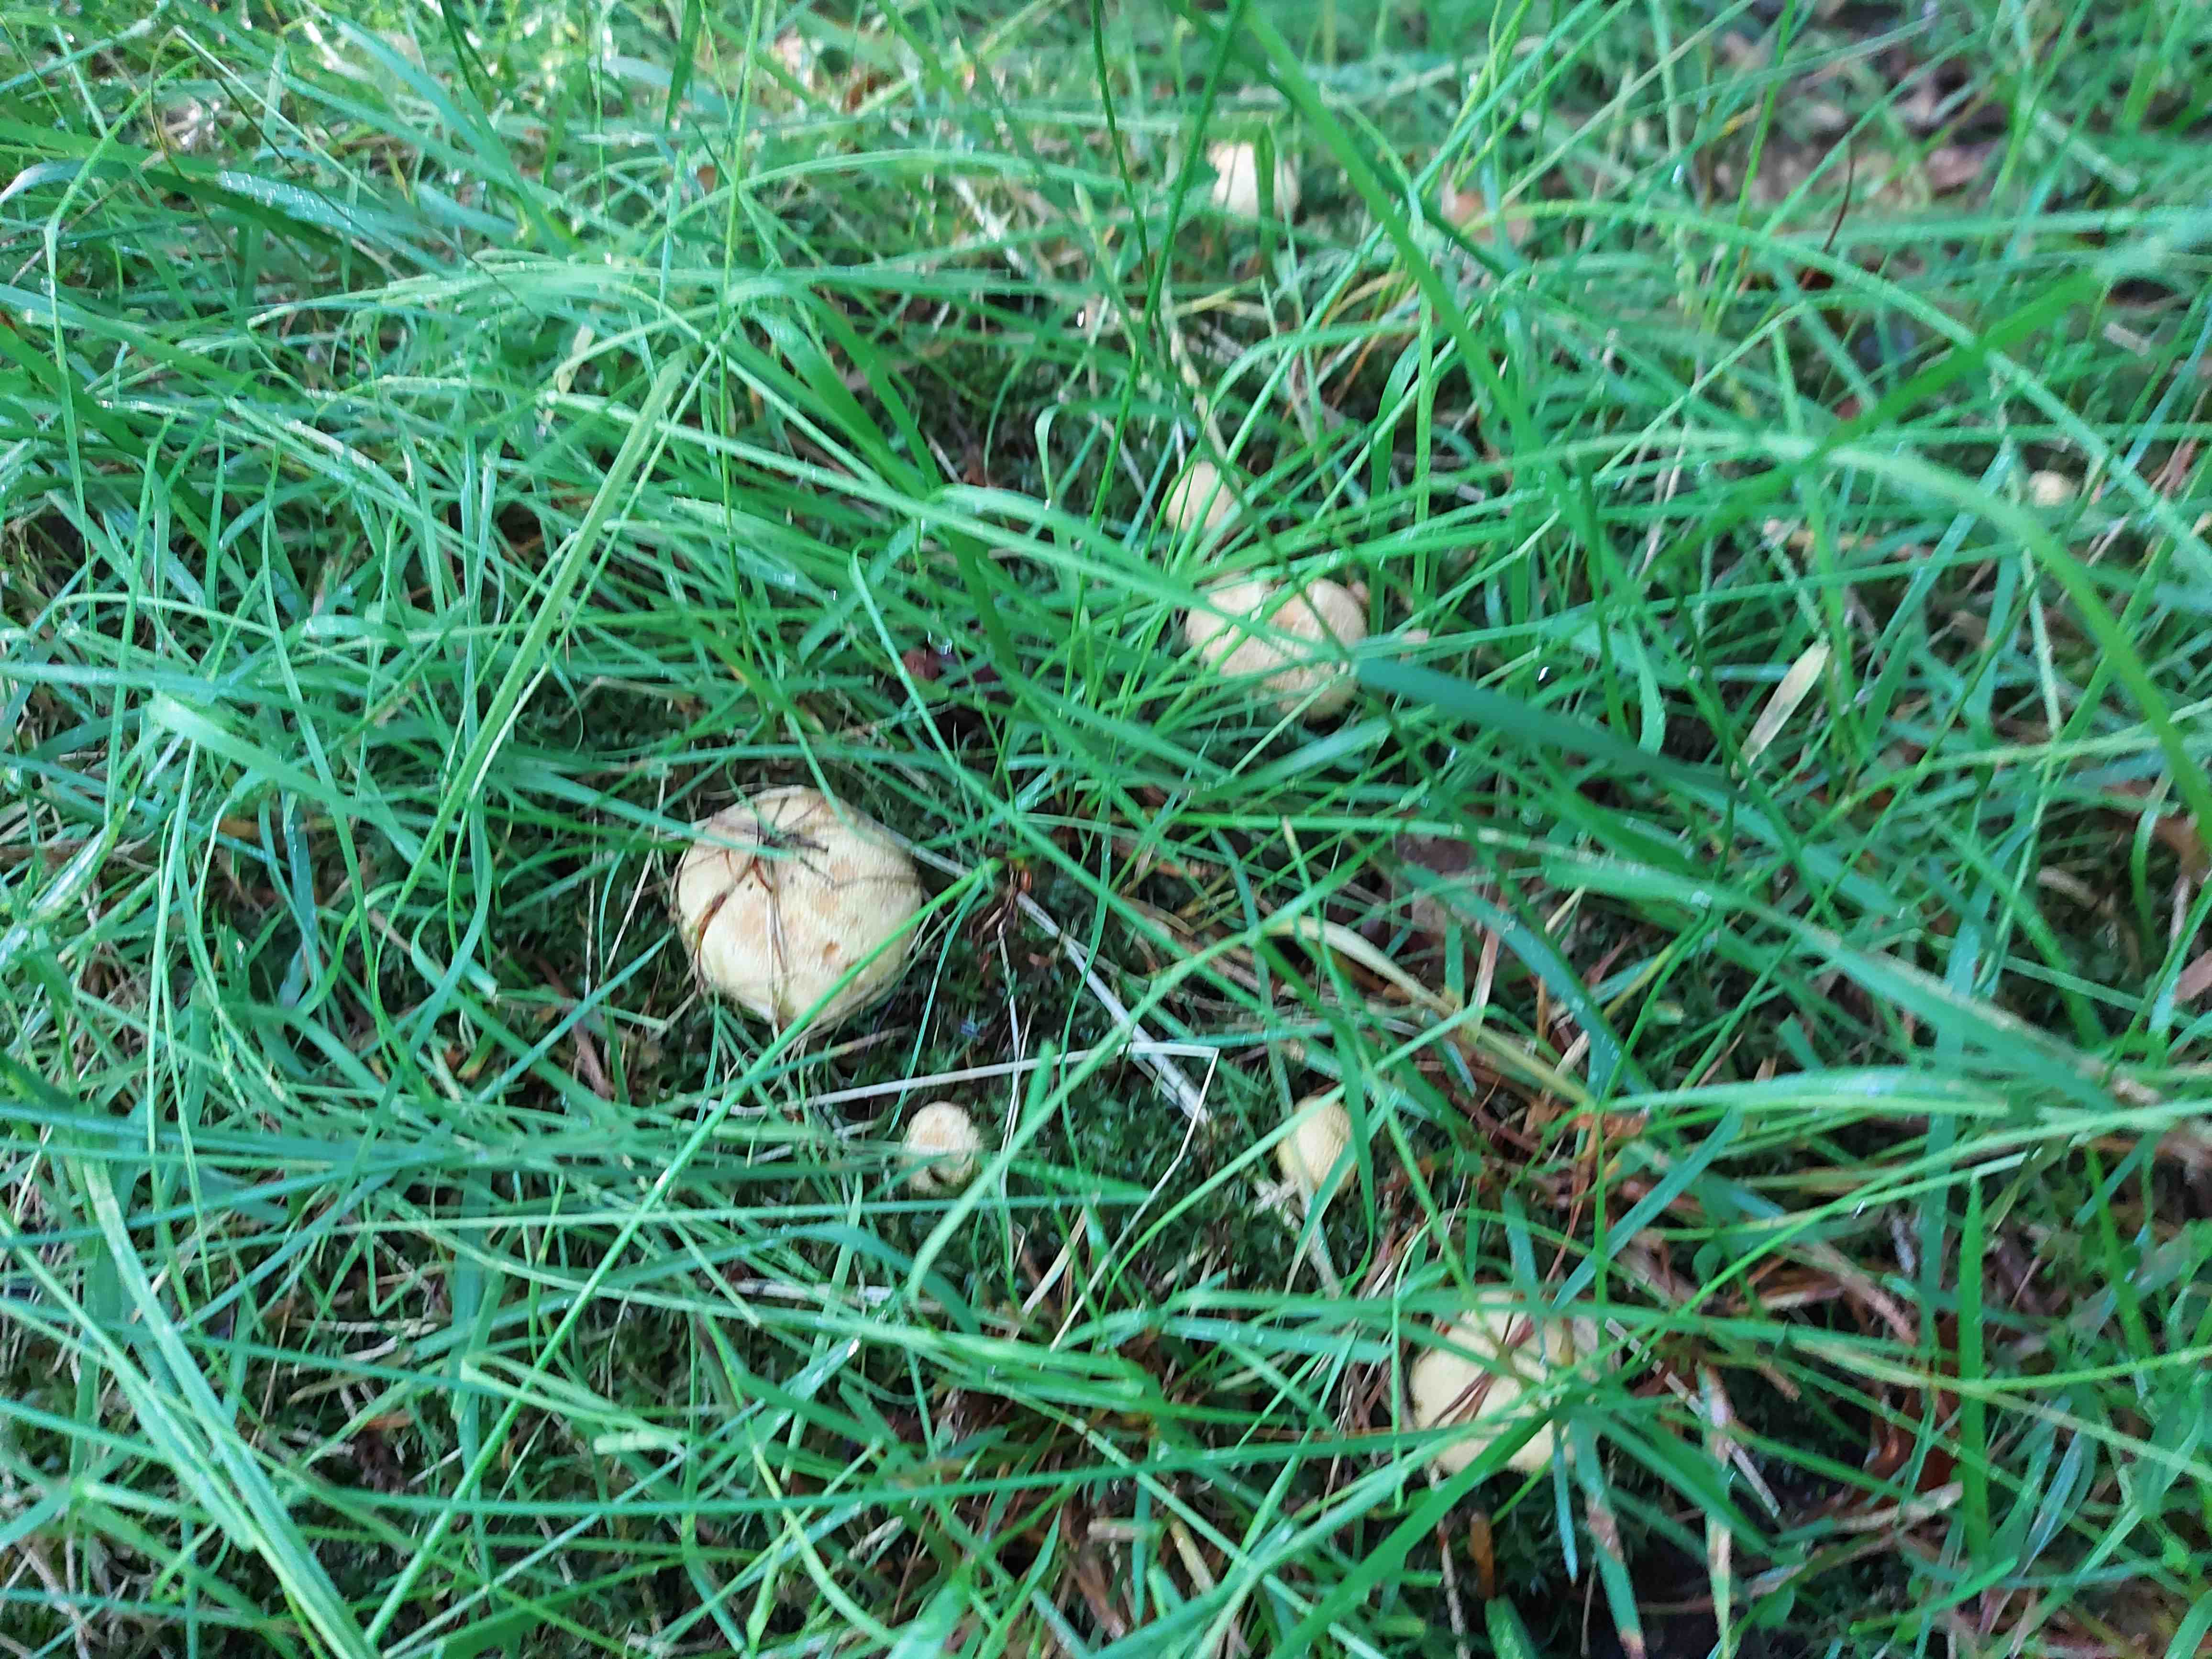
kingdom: Fungi
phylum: Basidiomycota
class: Agaricomycetes
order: Boletales
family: Sclerodermataceae
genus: Scleroderma
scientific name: Scleroderma citrinum
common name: almindelig bruskbold
